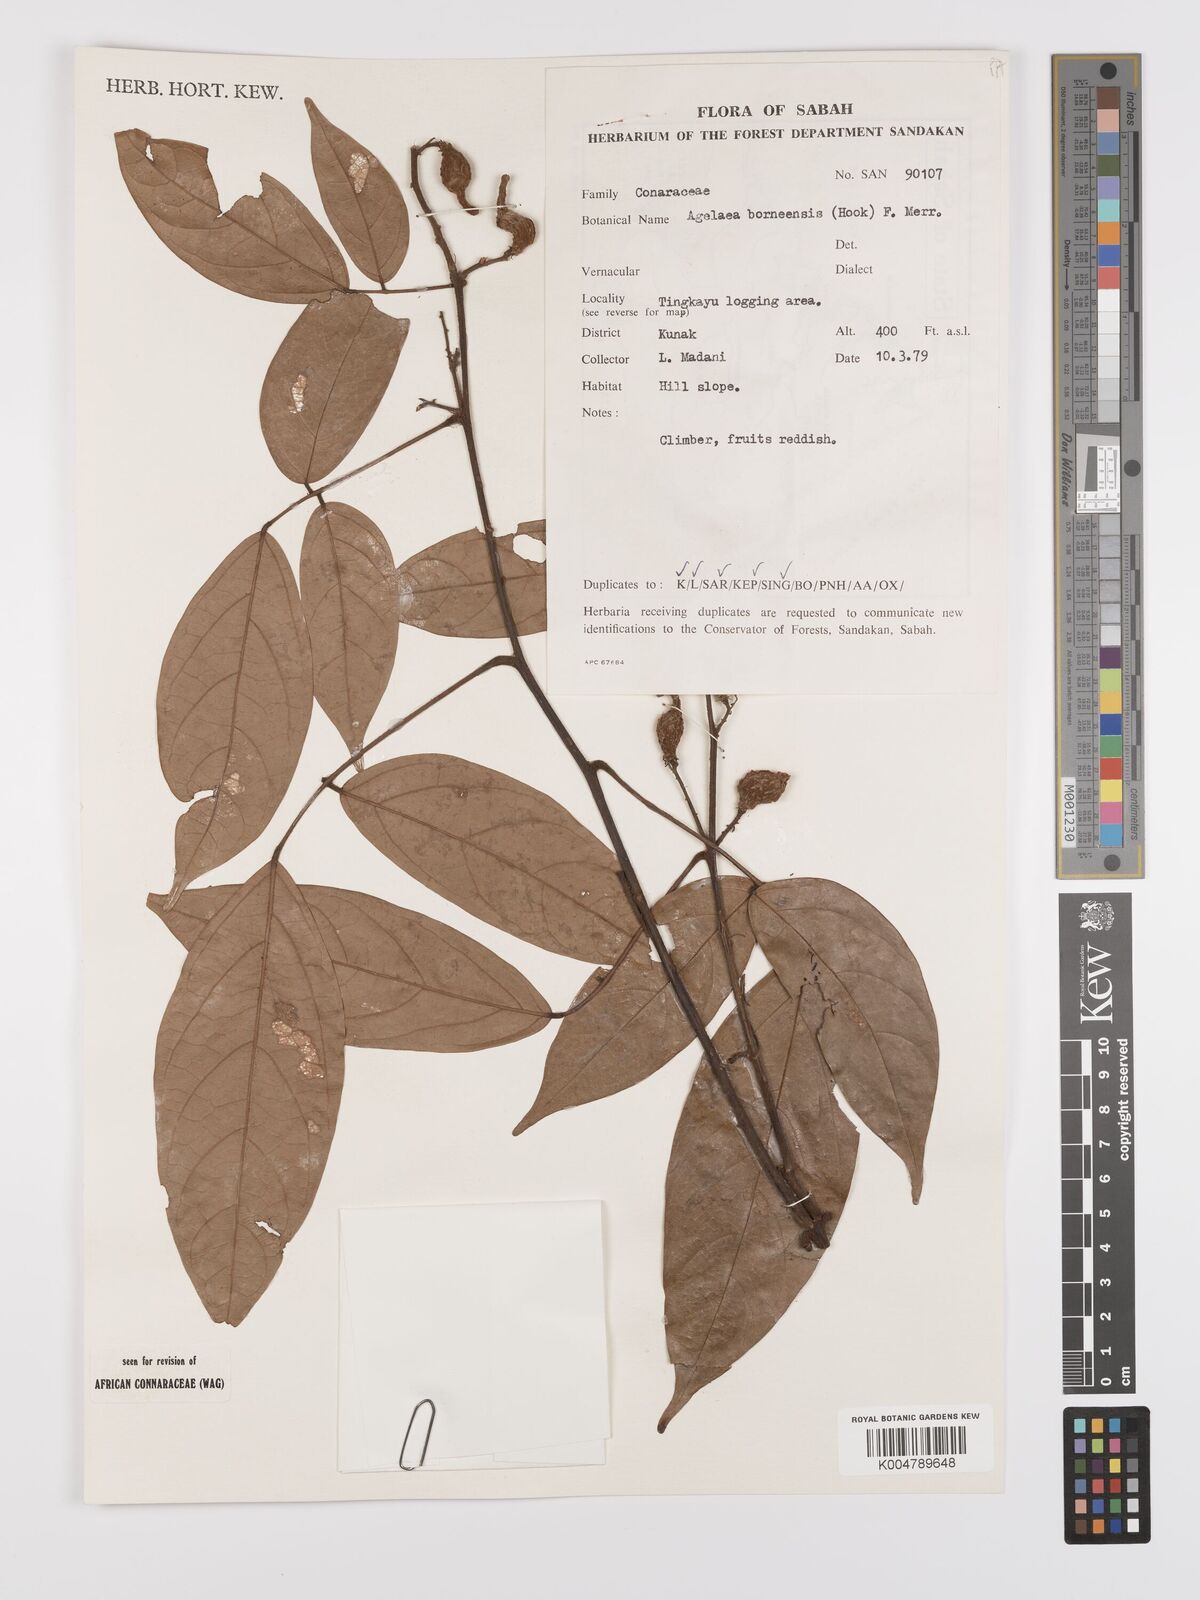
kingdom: Plantae
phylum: Tracheophyta
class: Magnoliopsida
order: Oxalidales
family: Connaraceae
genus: Agelaea
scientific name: Agelaea borneensis
